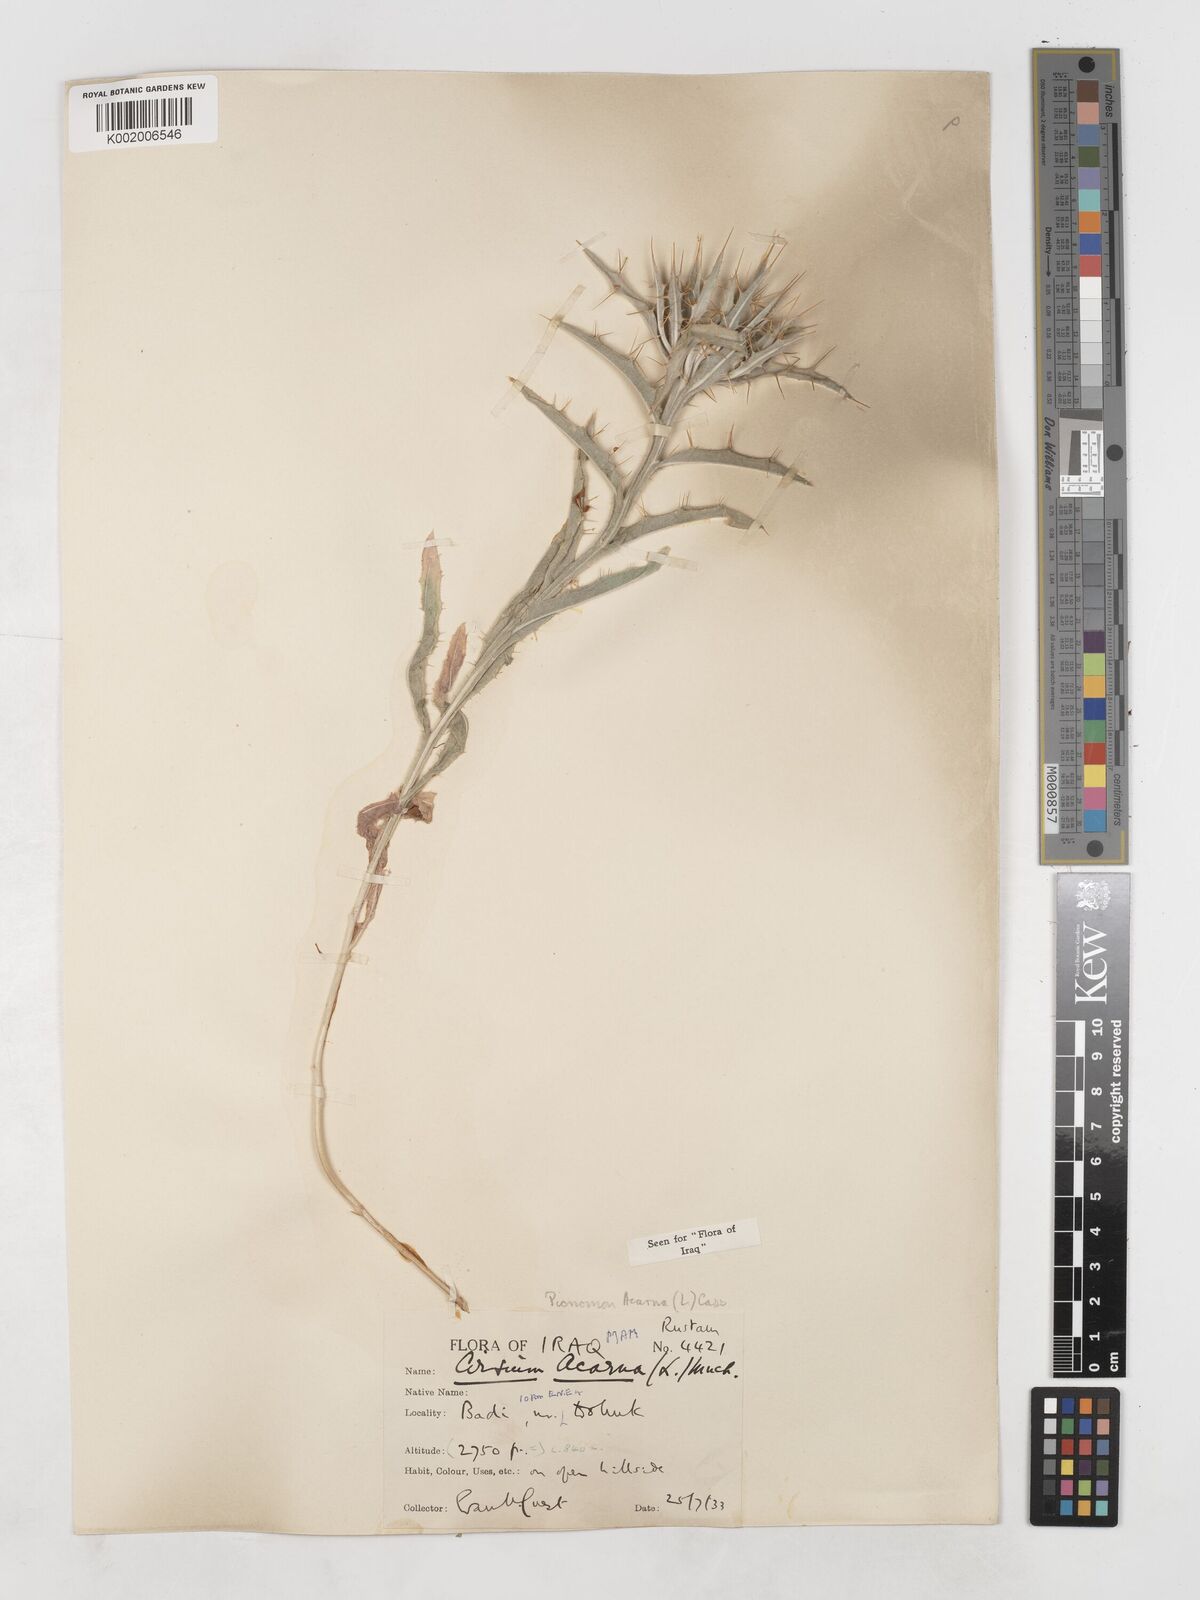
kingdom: Plantae
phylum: Tracheophyta
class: Magnoliopsida
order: Asterales
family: Asteraceae
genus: Picnomon
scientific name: Picnomon acarna
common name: Soldier thistle
